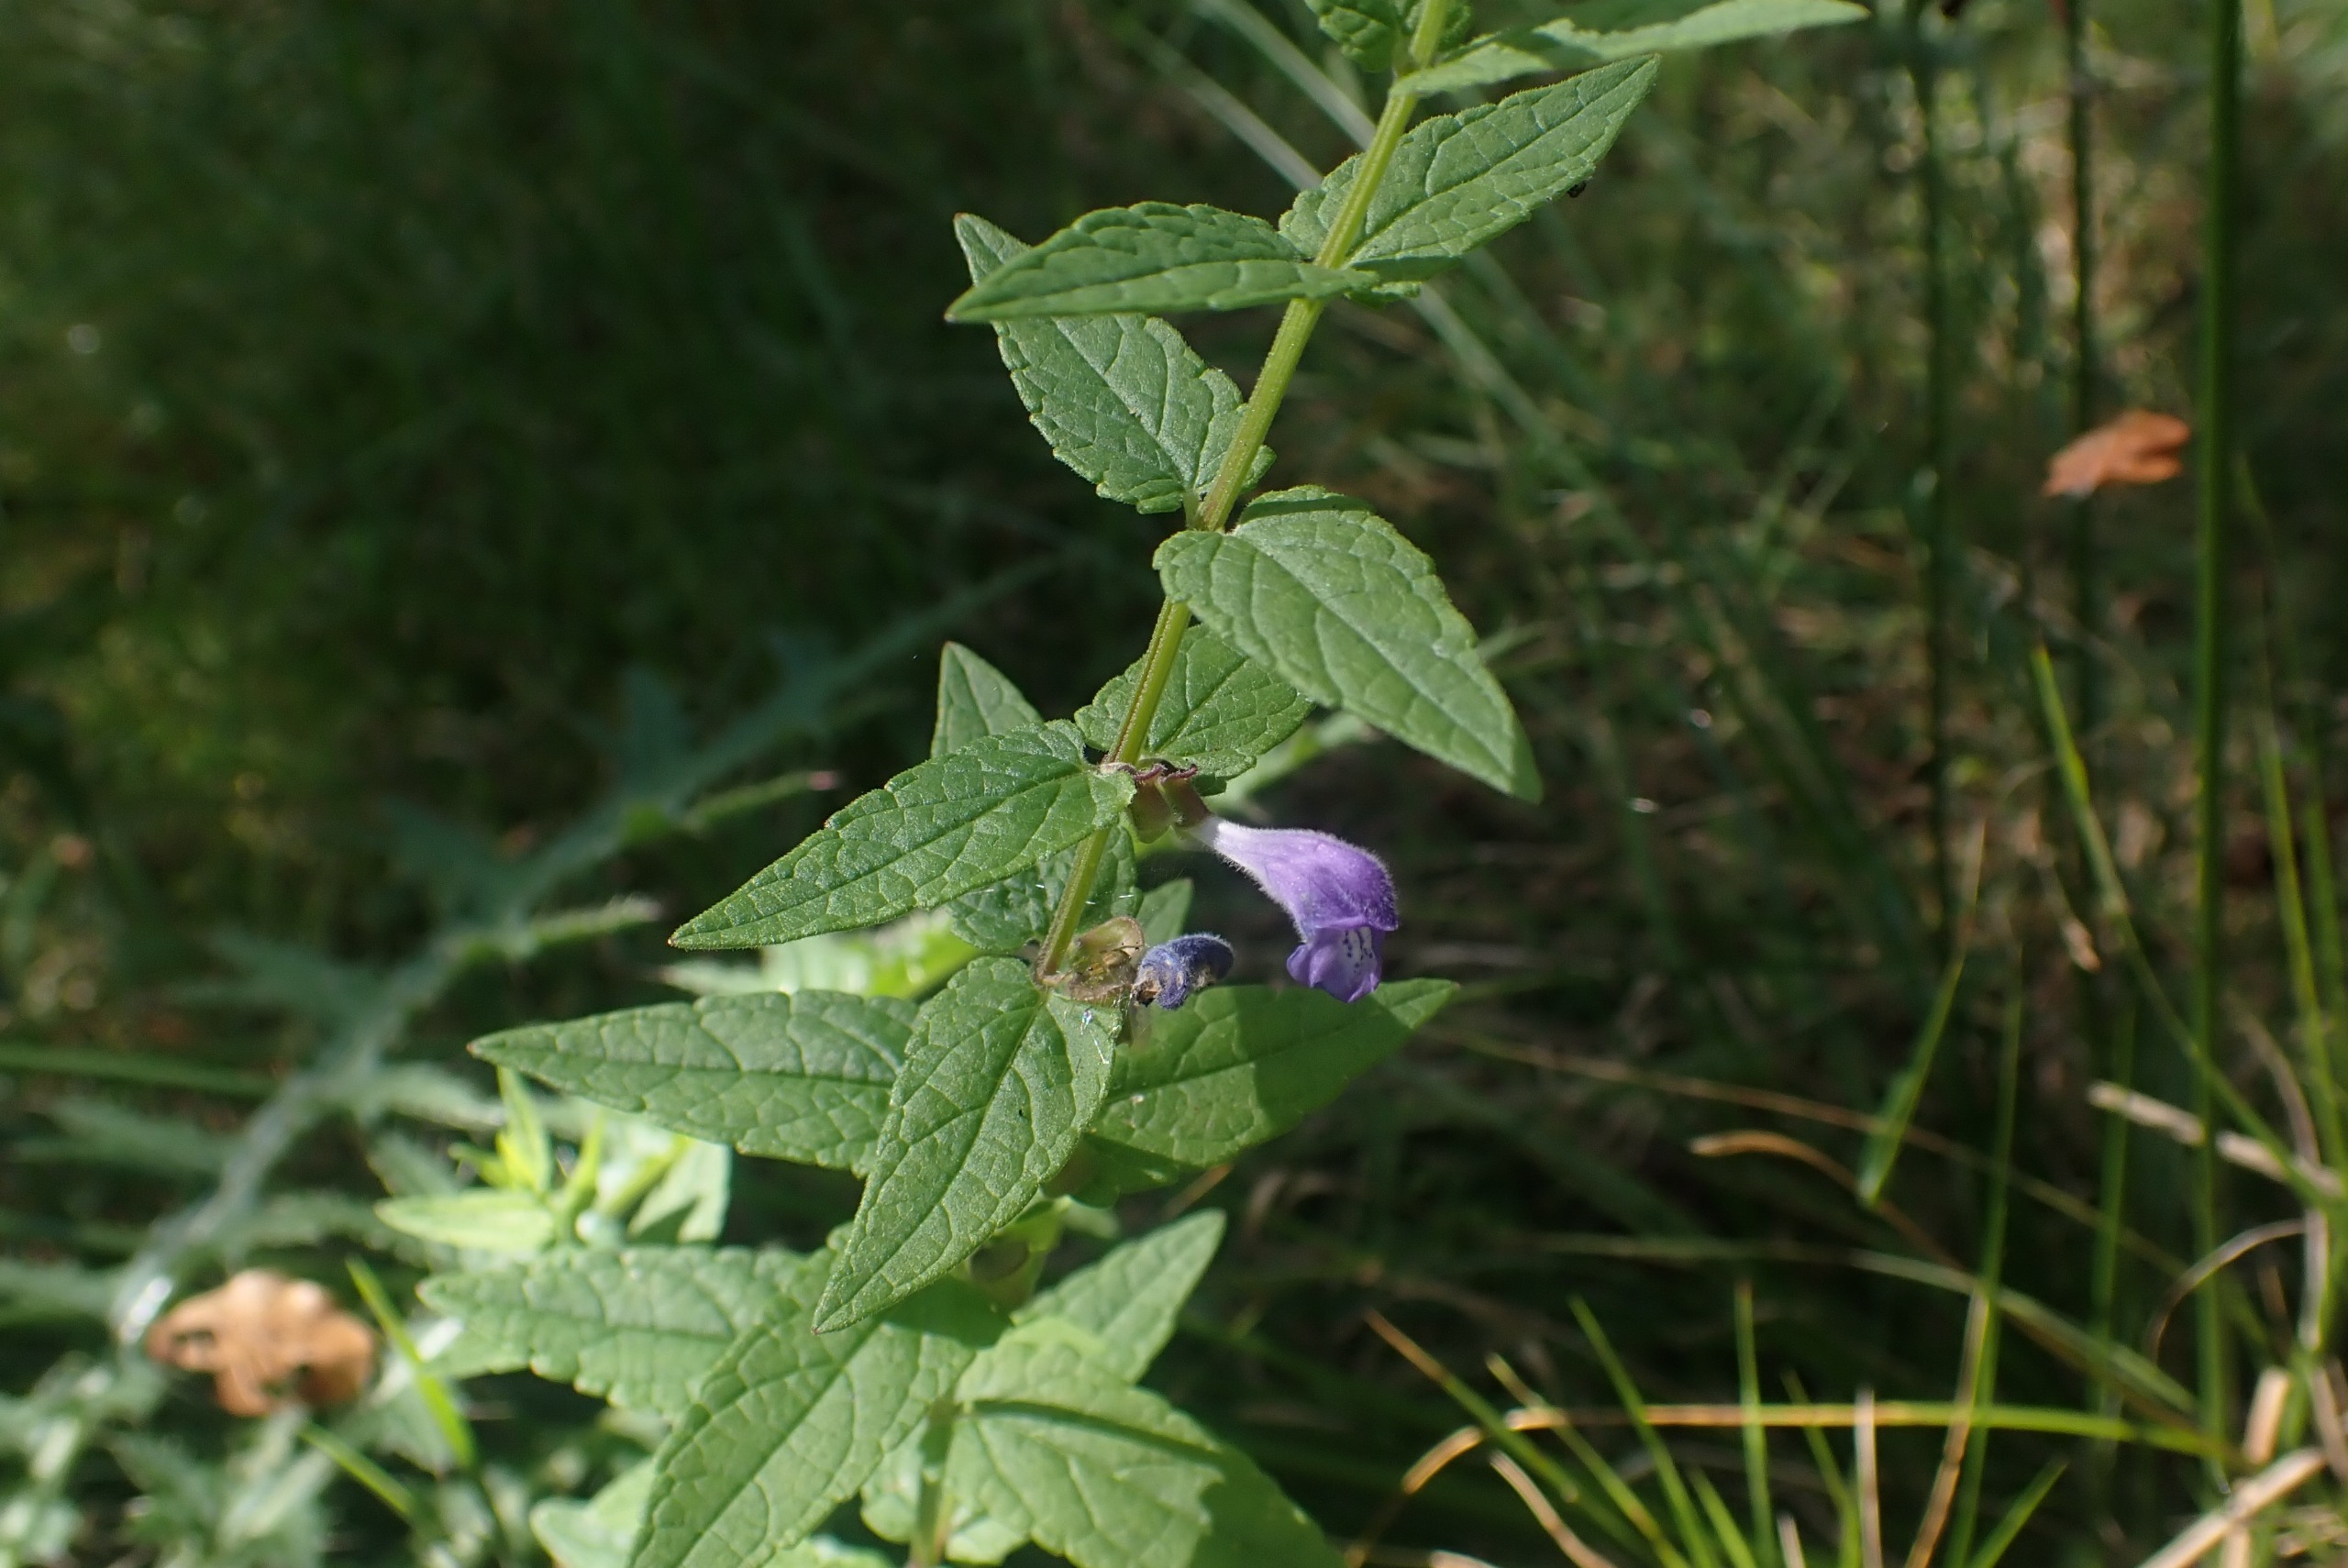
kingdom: Plantae
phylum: Tracheophyta
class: Magnoliopsida
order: Lamiales
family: Lamiaceae
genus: Scutellaria
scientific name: Scutellaria galericulata
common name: Almindelig skjolddrager
